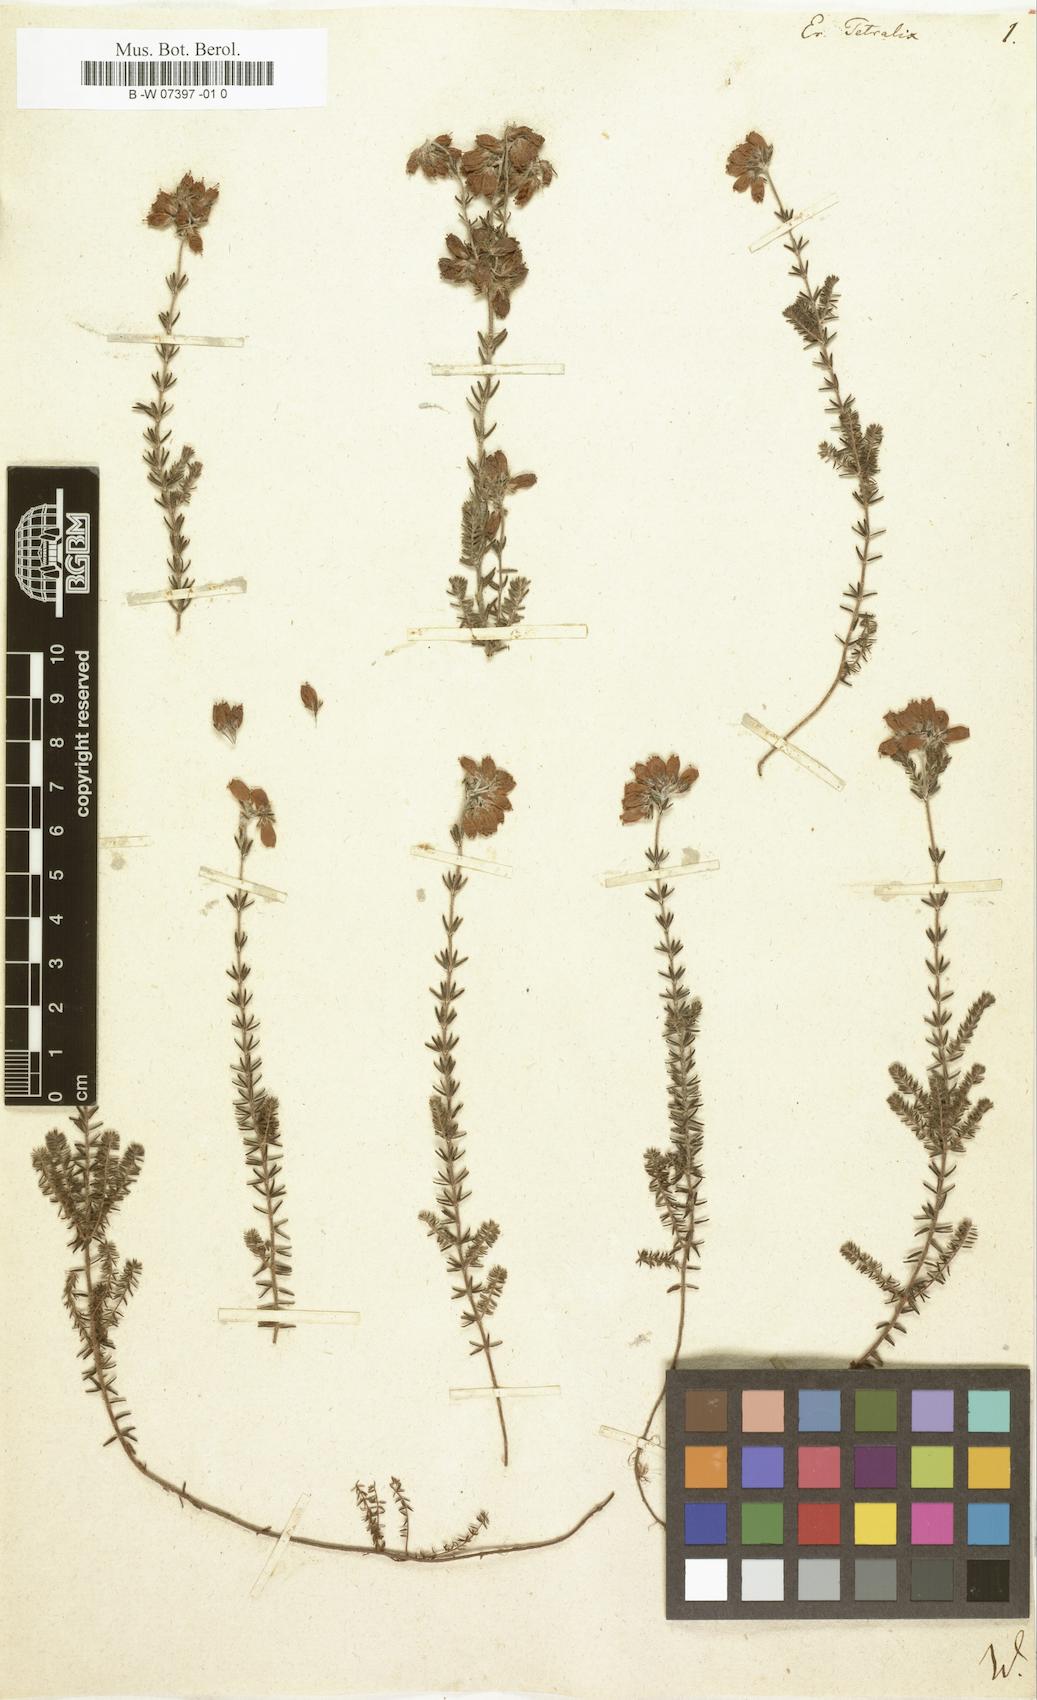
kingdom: Plantae
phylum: Tracheophyta
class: Magnoliopsida
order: Ericales
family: Ericaceae
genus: Erica
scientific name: Erica tetralix
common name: Cross-leaved heath
